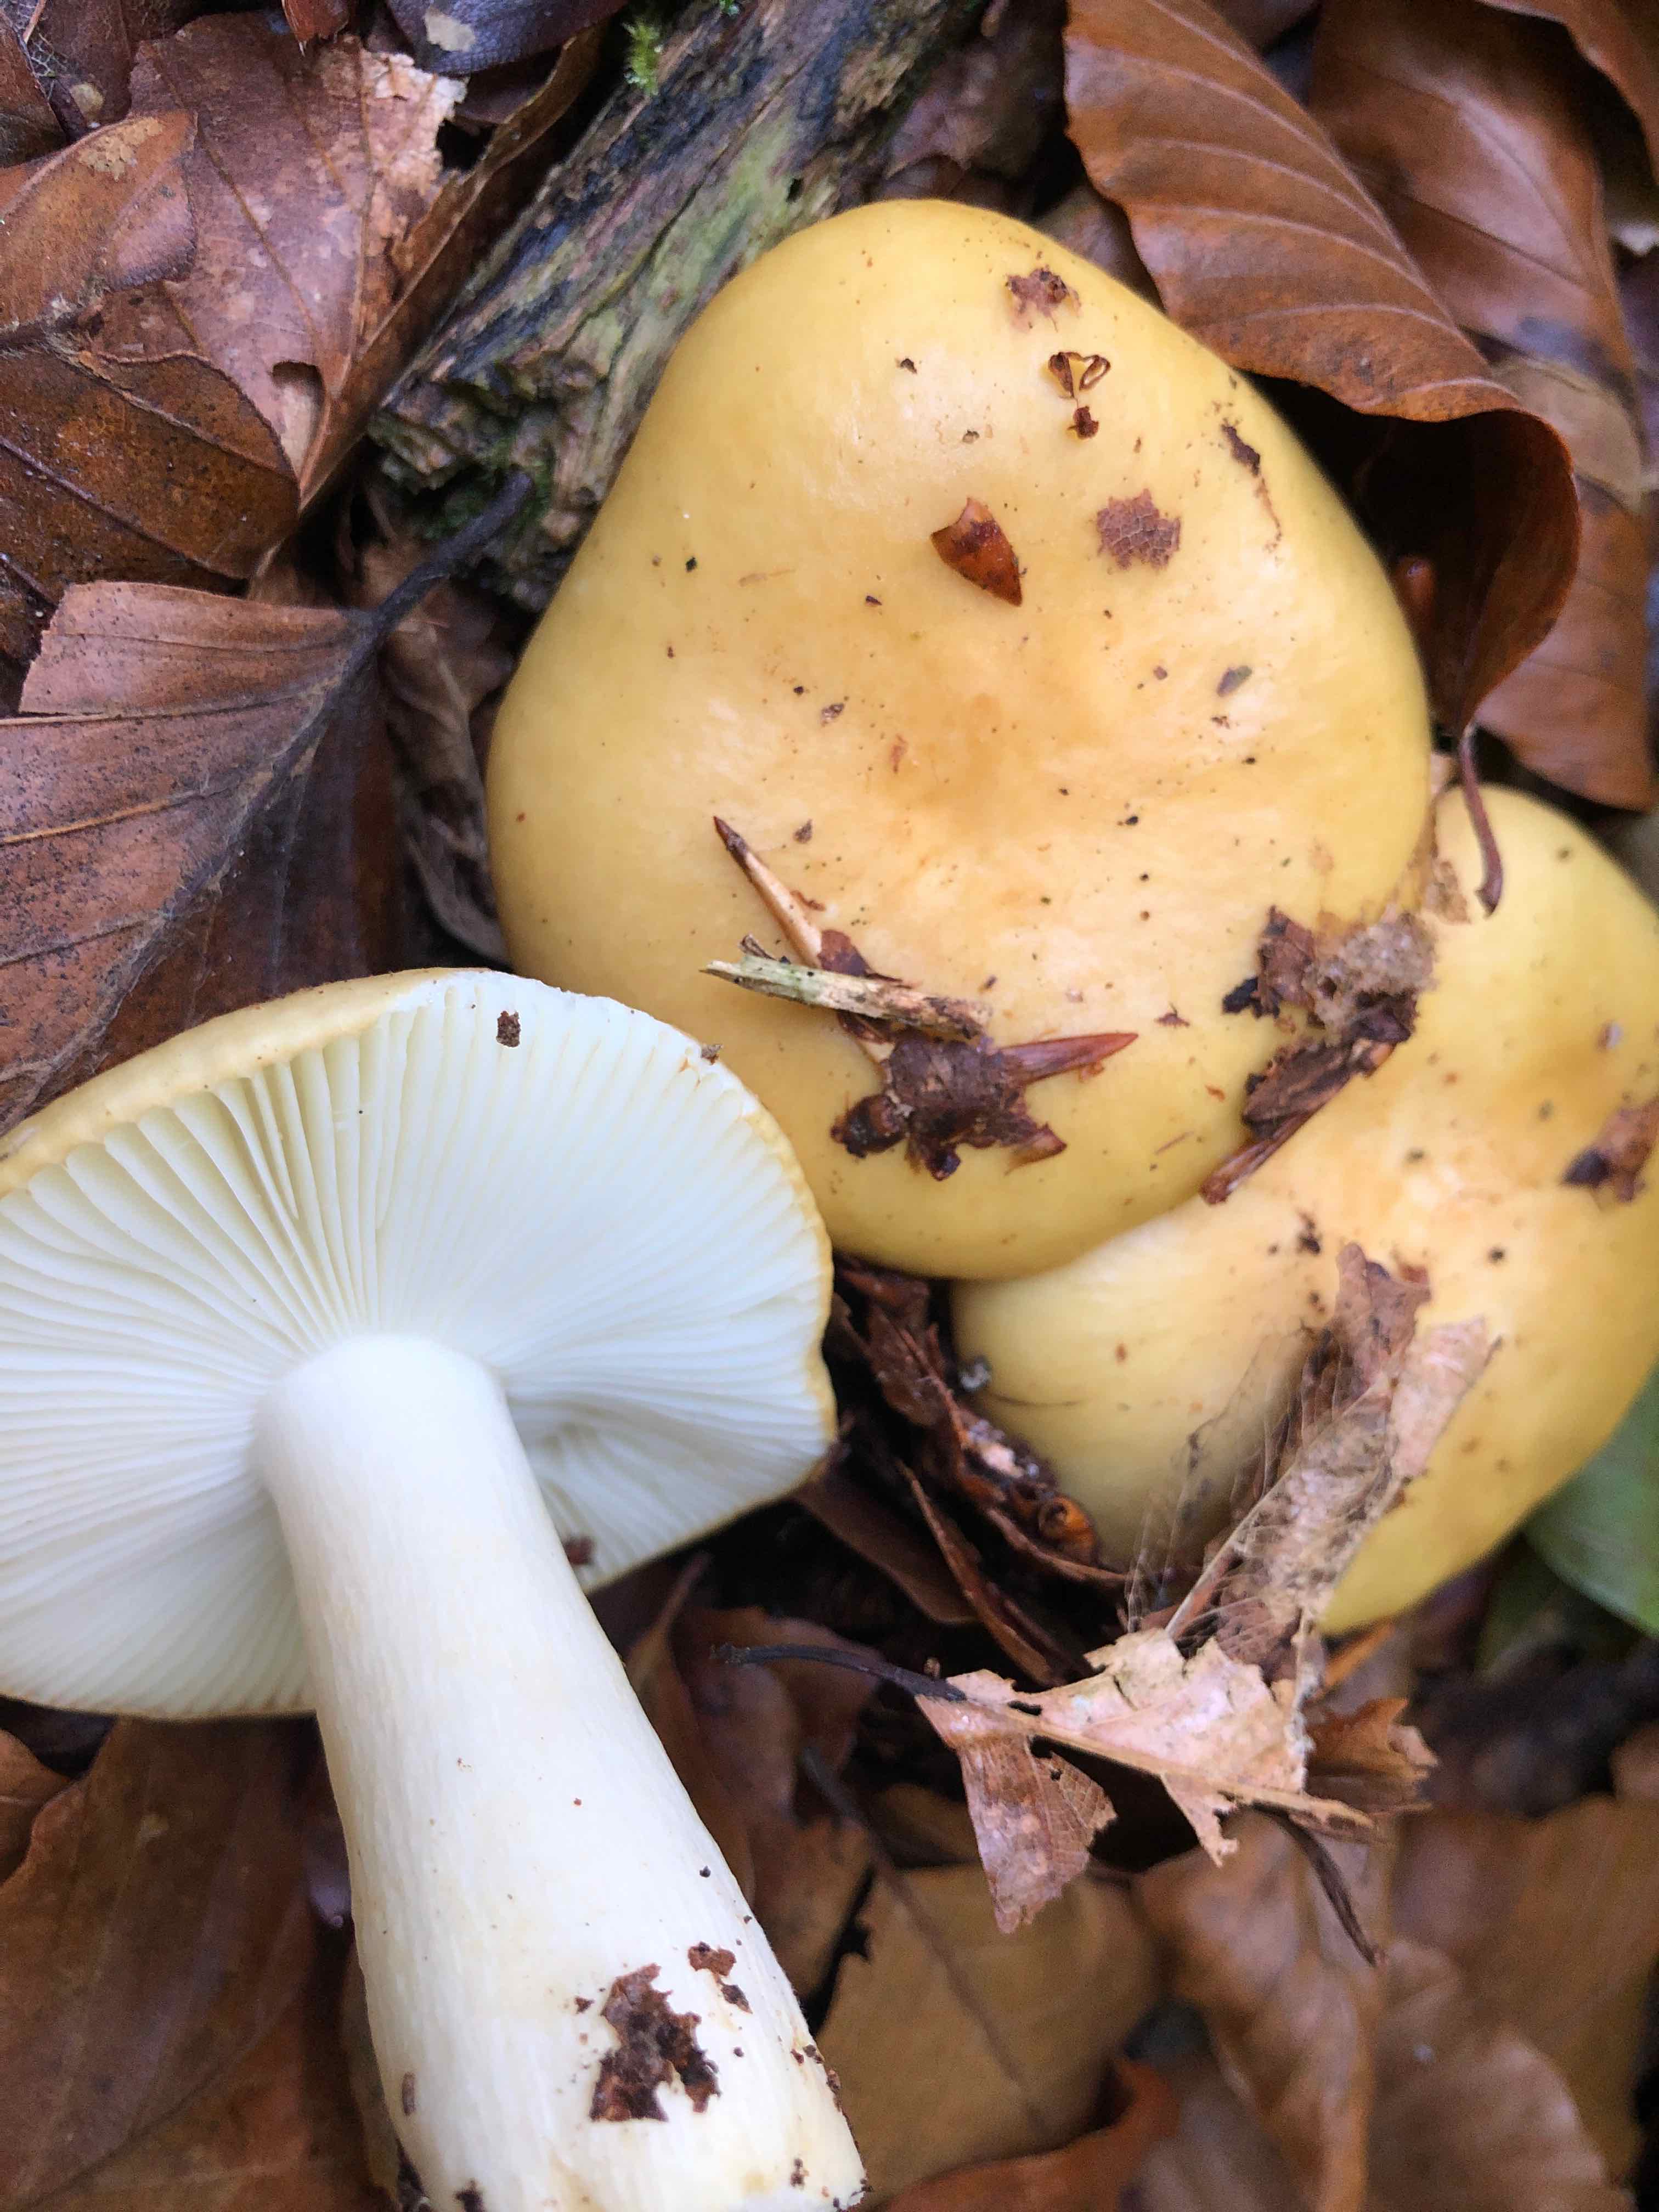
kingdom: Fungi
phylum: Basidiomycota
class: Agaricomycetes
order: Russulales
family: Russulaceae
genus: Russula
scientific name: Russula ochroleuca
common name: okkergul skørhat
